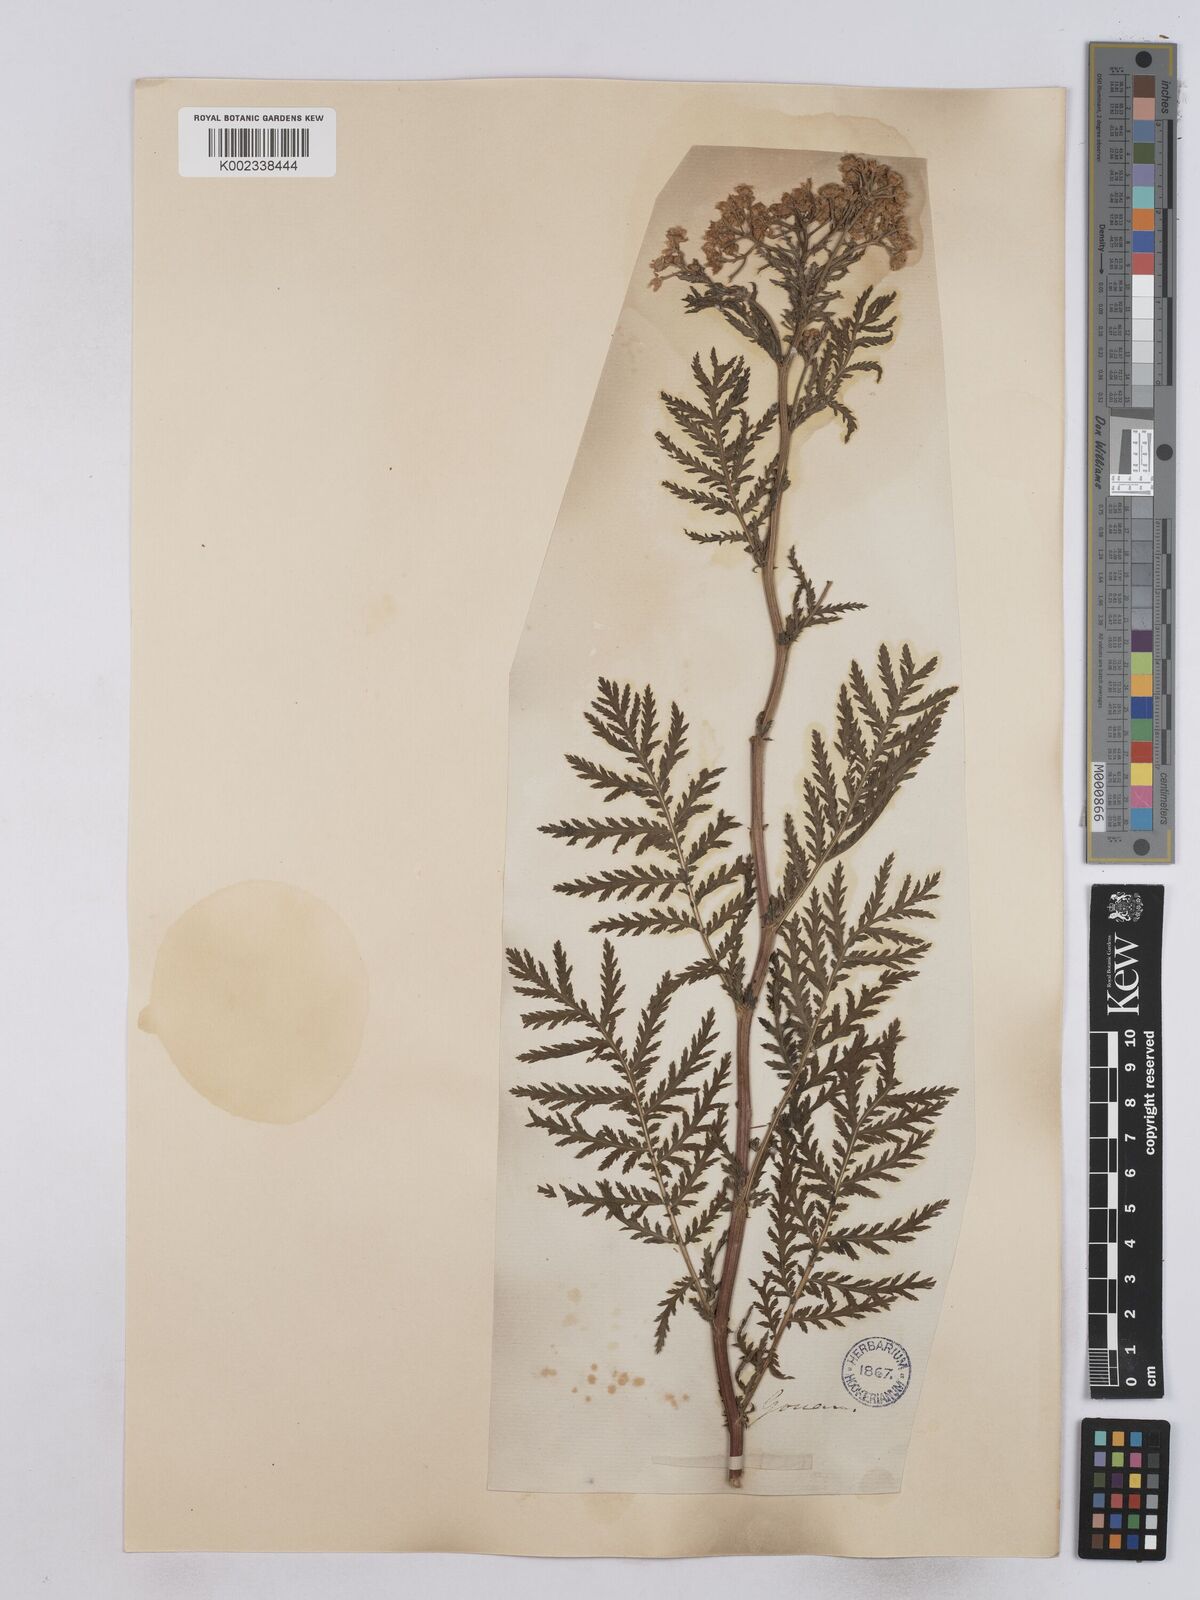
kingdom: Plantae
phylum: Tracheophyta
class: Magnoliopsida
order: Asterales
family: Asteraceae
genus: Tanacetum
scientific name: Tanacetum vulgare
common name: Common tansy
